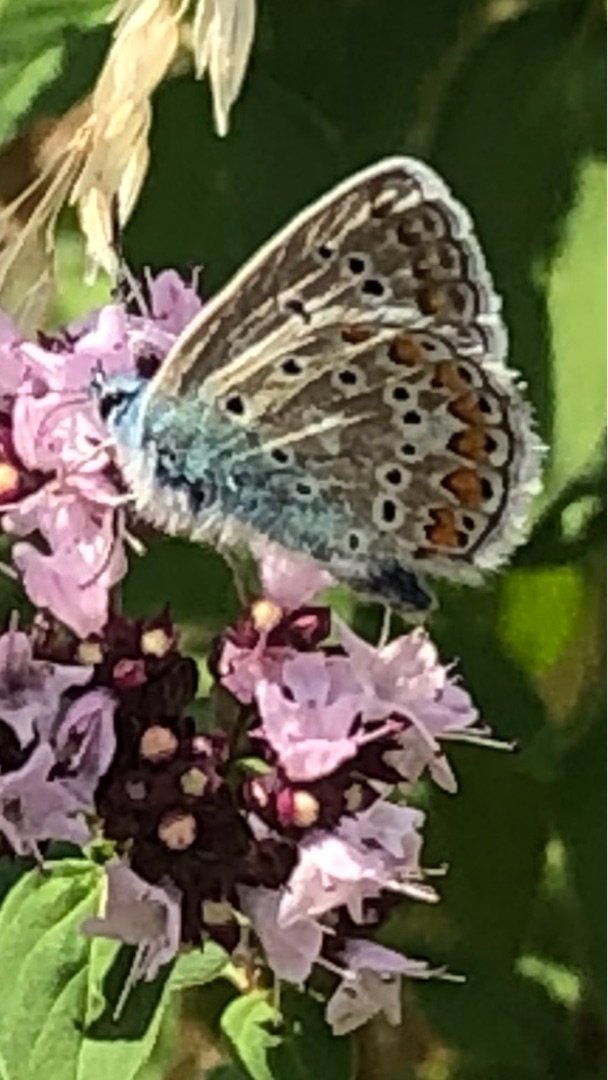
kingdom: Animalia
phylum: Arthropoda
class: Insecta
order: Lepidoptera
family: Lycaenidae
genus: Polyommatus
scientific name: Polyommatus icarus
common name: Almindelig blåfugl
